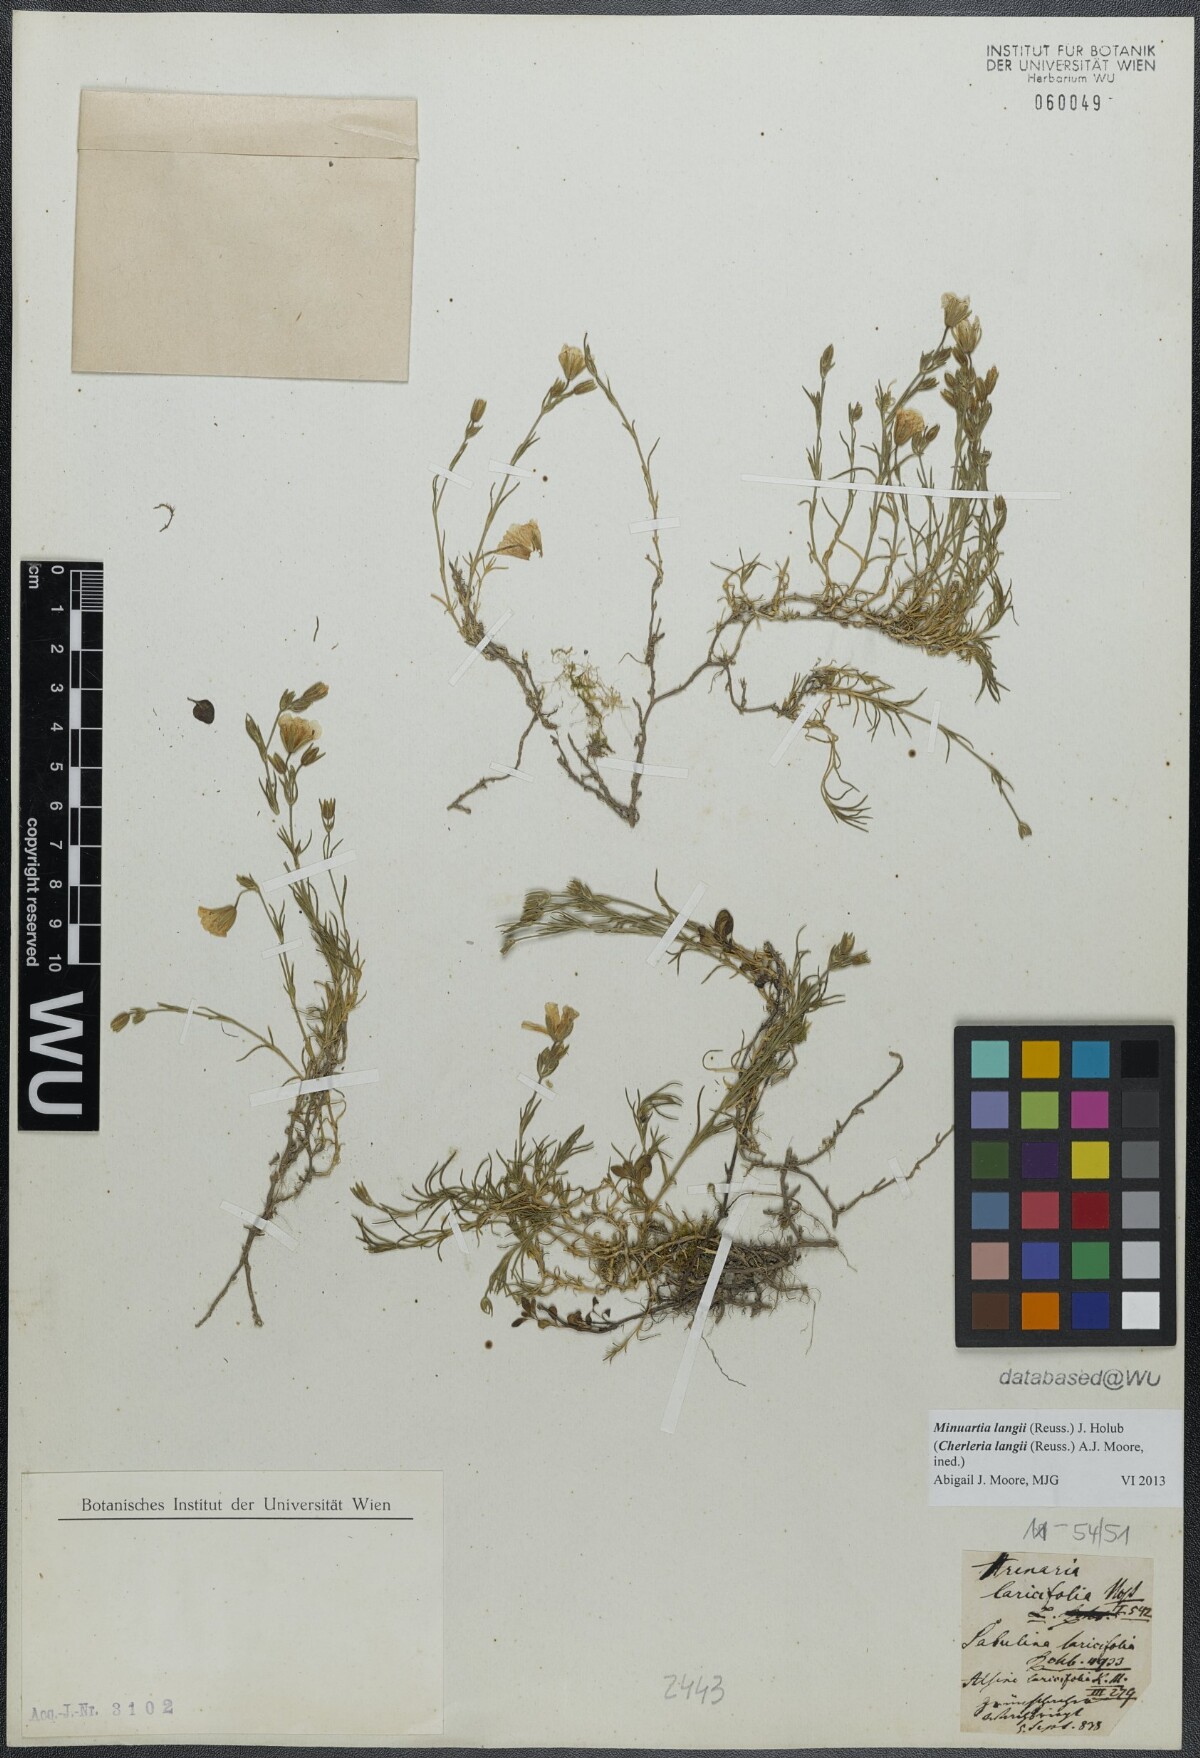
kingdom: Plantae
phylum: Tracheophyta
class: Magnoliopsida
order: Caryophyllales
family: Caryophyllaceae
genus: Cherleria
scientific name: Cherleria langii
